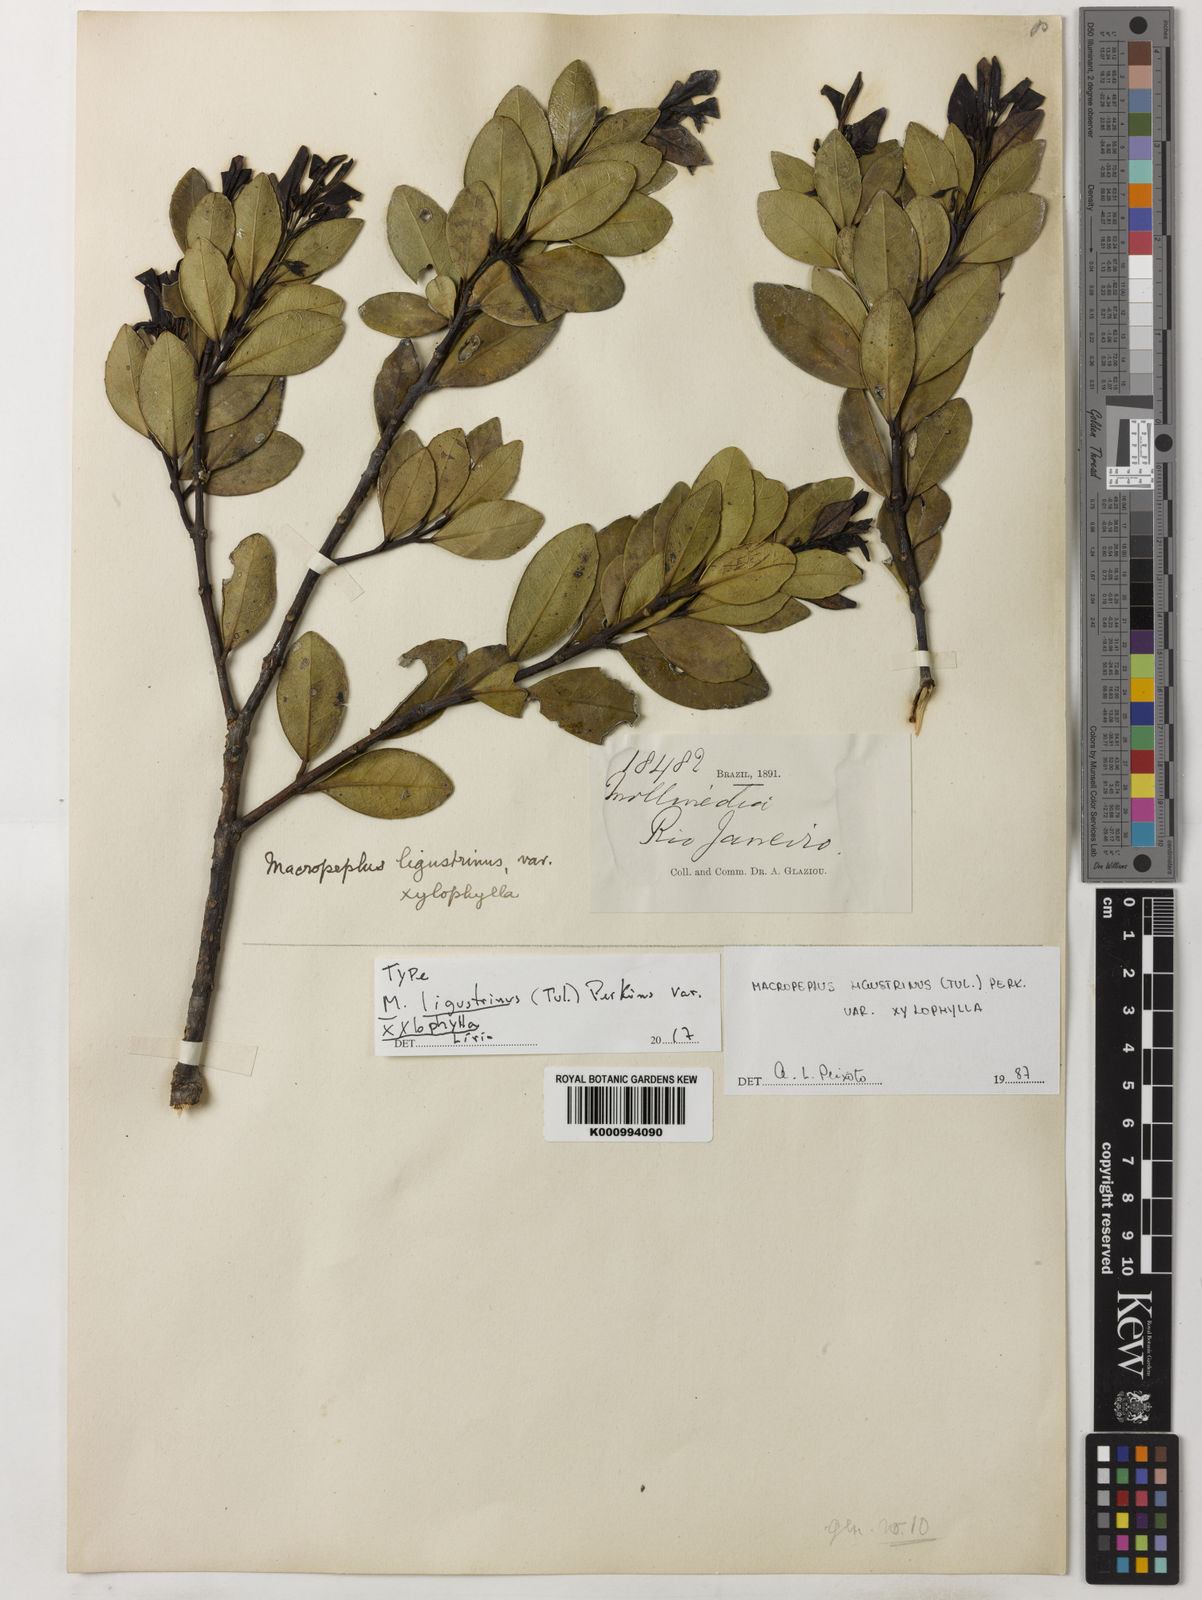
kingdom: Plantae
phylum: Tracheophyta
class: Magnoliopsida
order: Laurales
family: Monimiaceae
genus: Macropeplus
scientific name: Macropeplus ligustrinus
